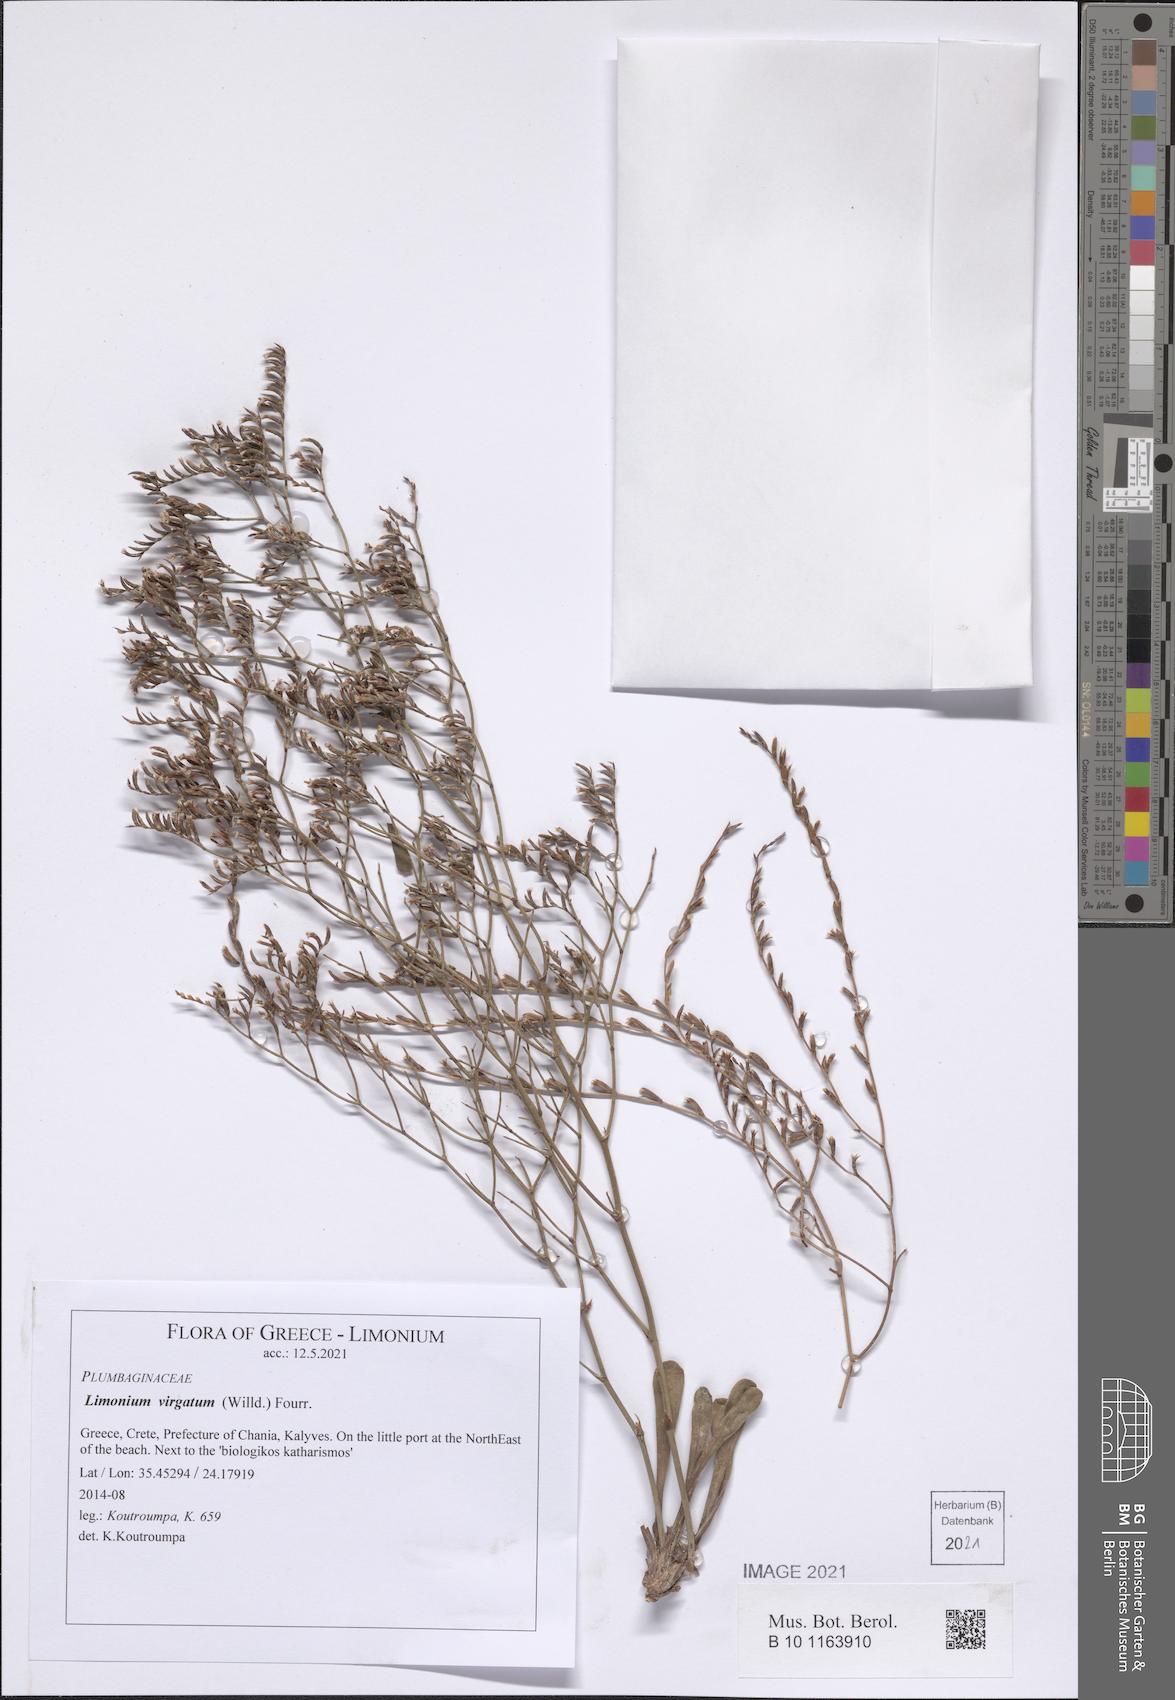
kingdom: Plantae
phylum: Tracheophyta
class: Magnoliopsida
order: Caryophyllales
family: Plumbaginaceae
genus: Limonium
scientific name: Limonium virgatum
